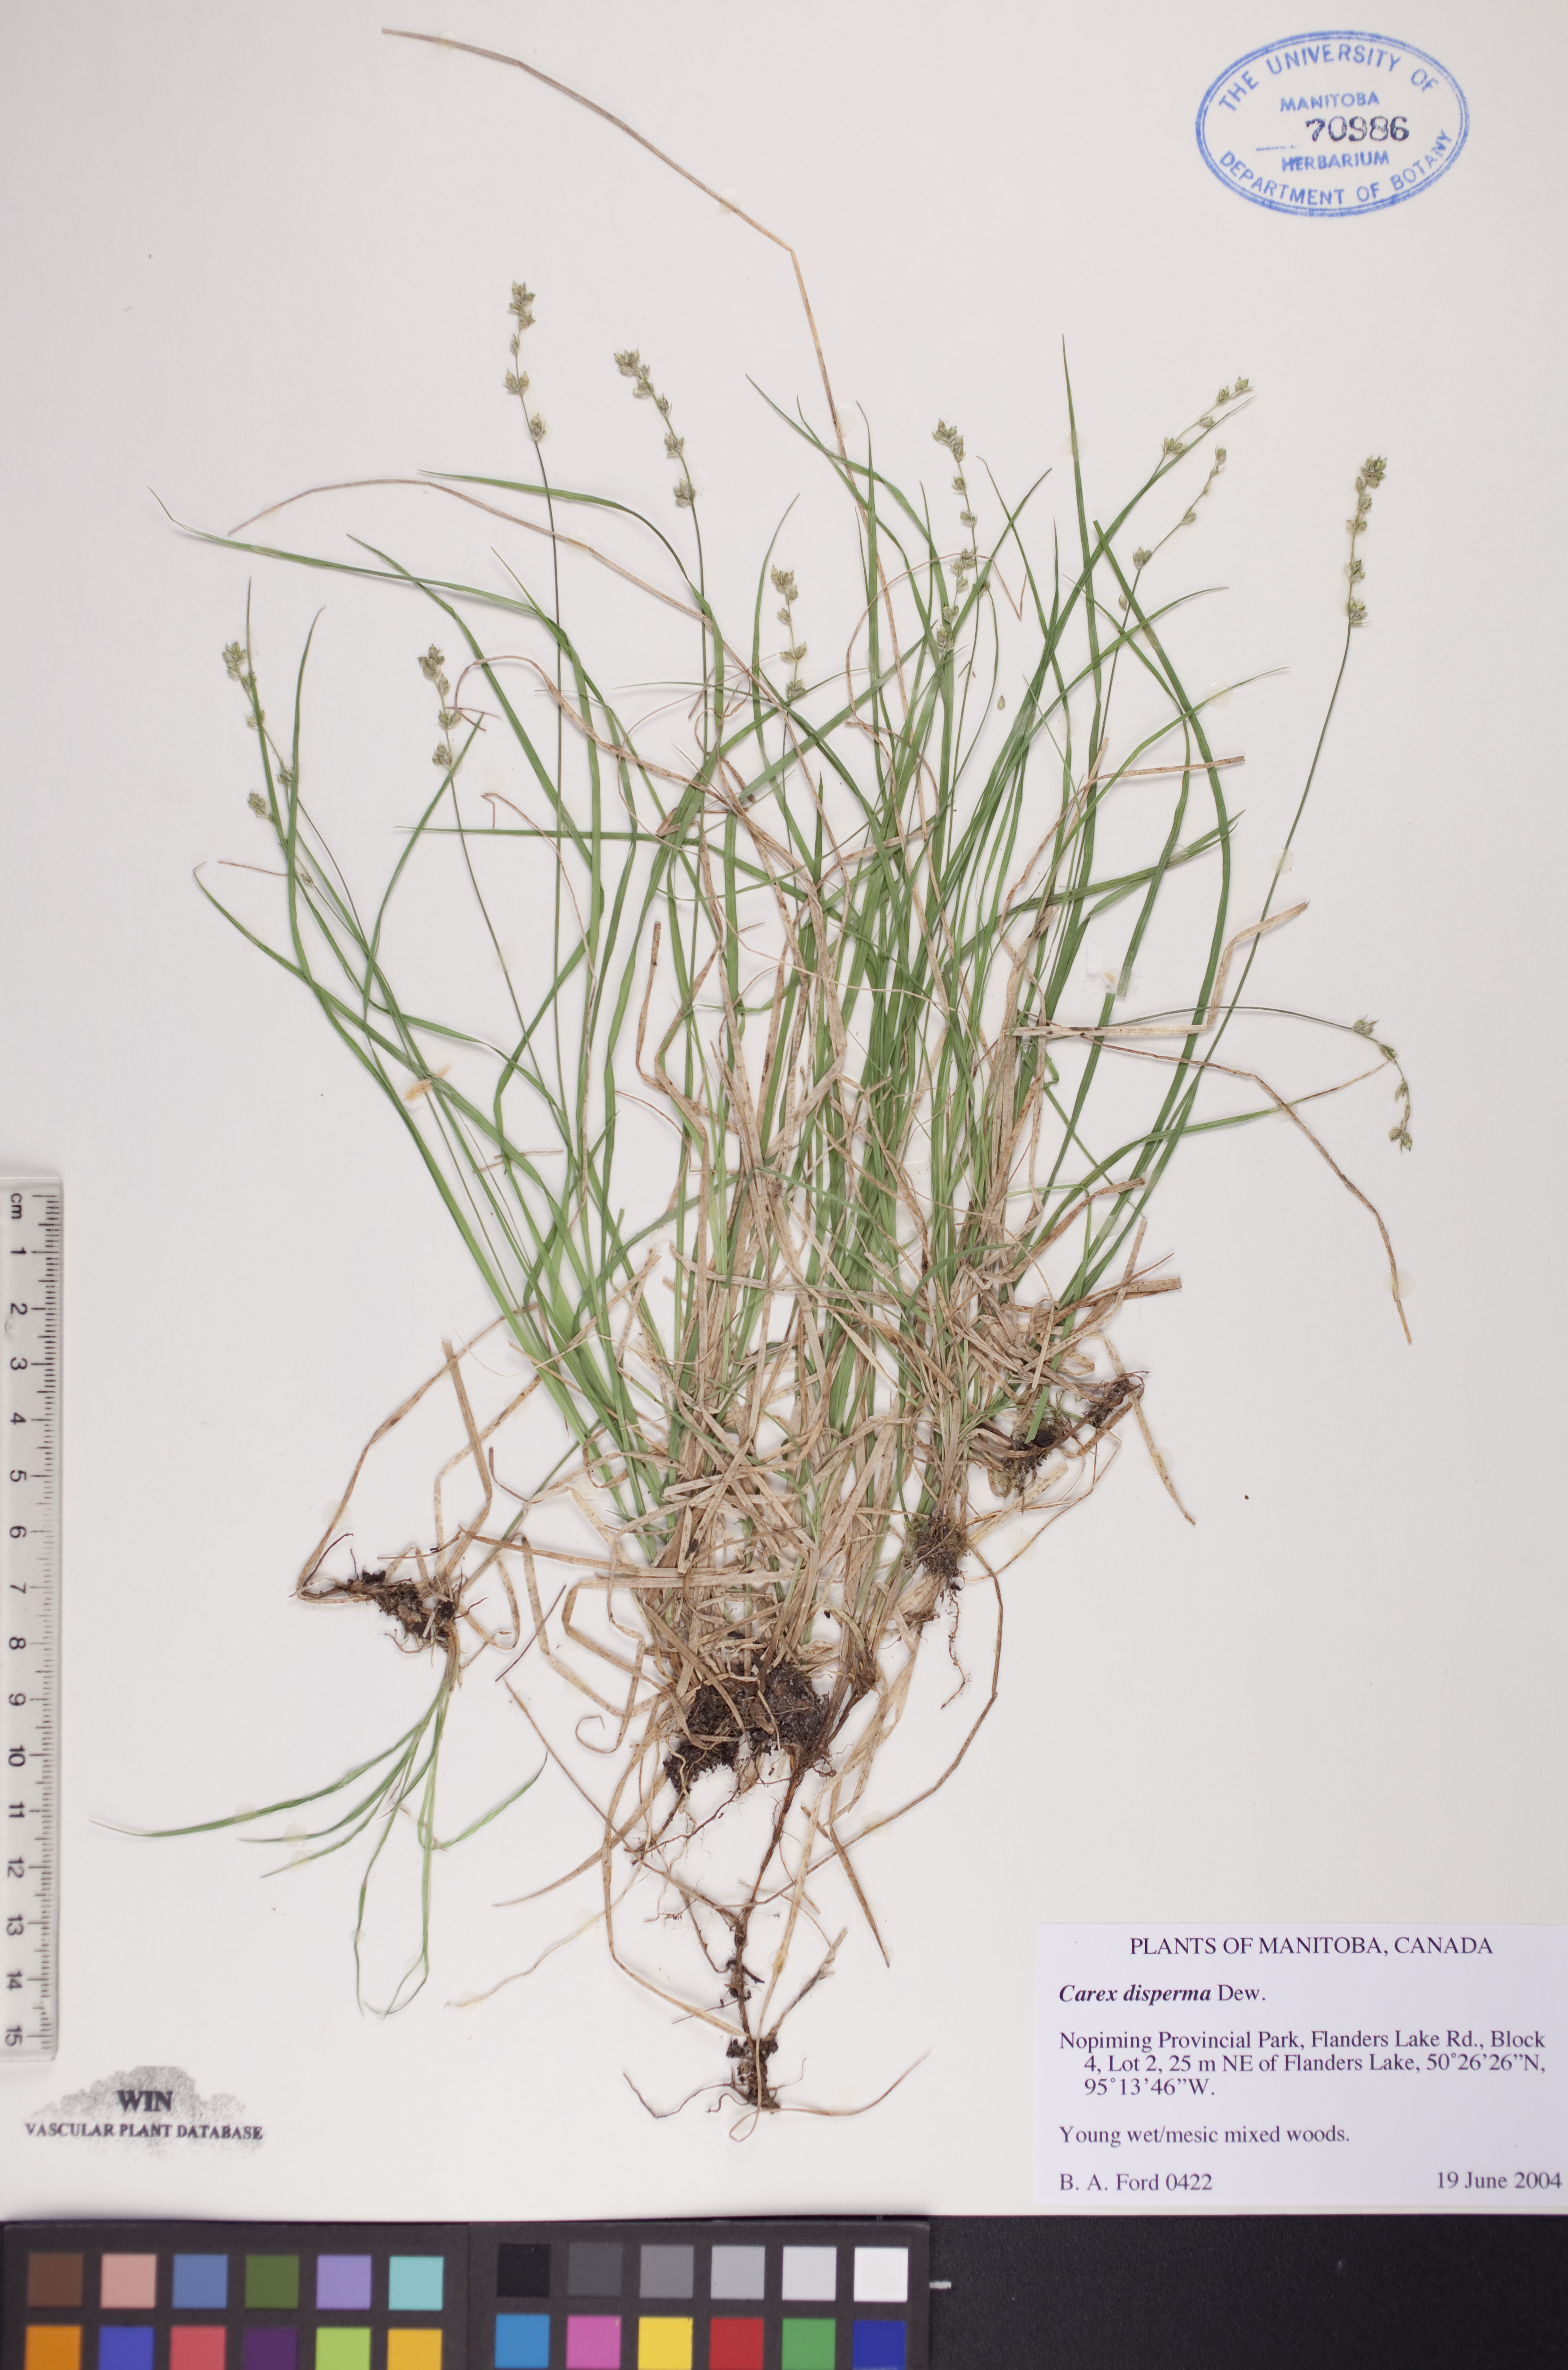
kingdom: Plantae
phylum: Tracheophyta
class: Liliopsida
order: Poales
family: Cyperaceae
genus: Carex
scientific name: Carex disperma
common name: Short-leaved sedge
